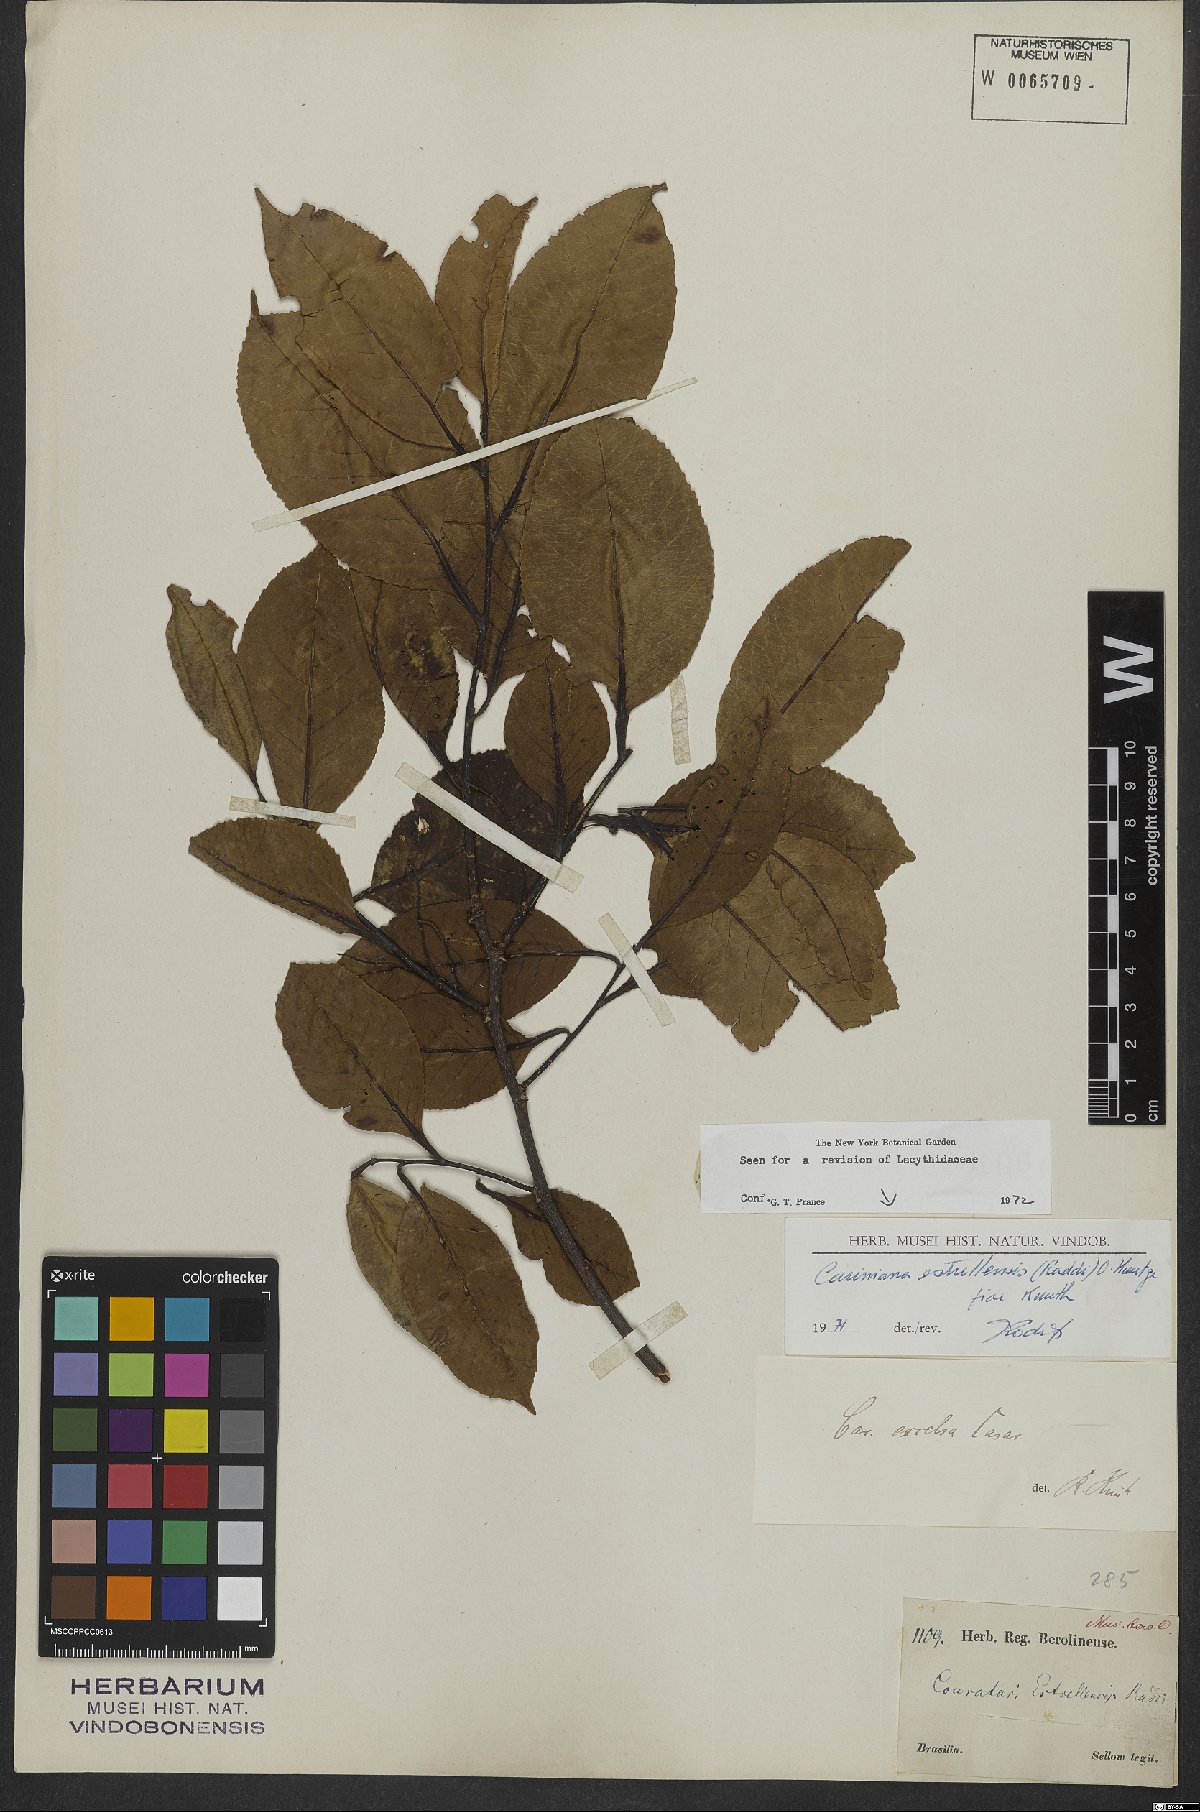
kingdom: Plantae
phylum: Tracheophyta
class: Magnoliopsida
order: Ericales
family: Lecythidaceae
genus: Cariniana
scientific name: Cariniana estrellensis
